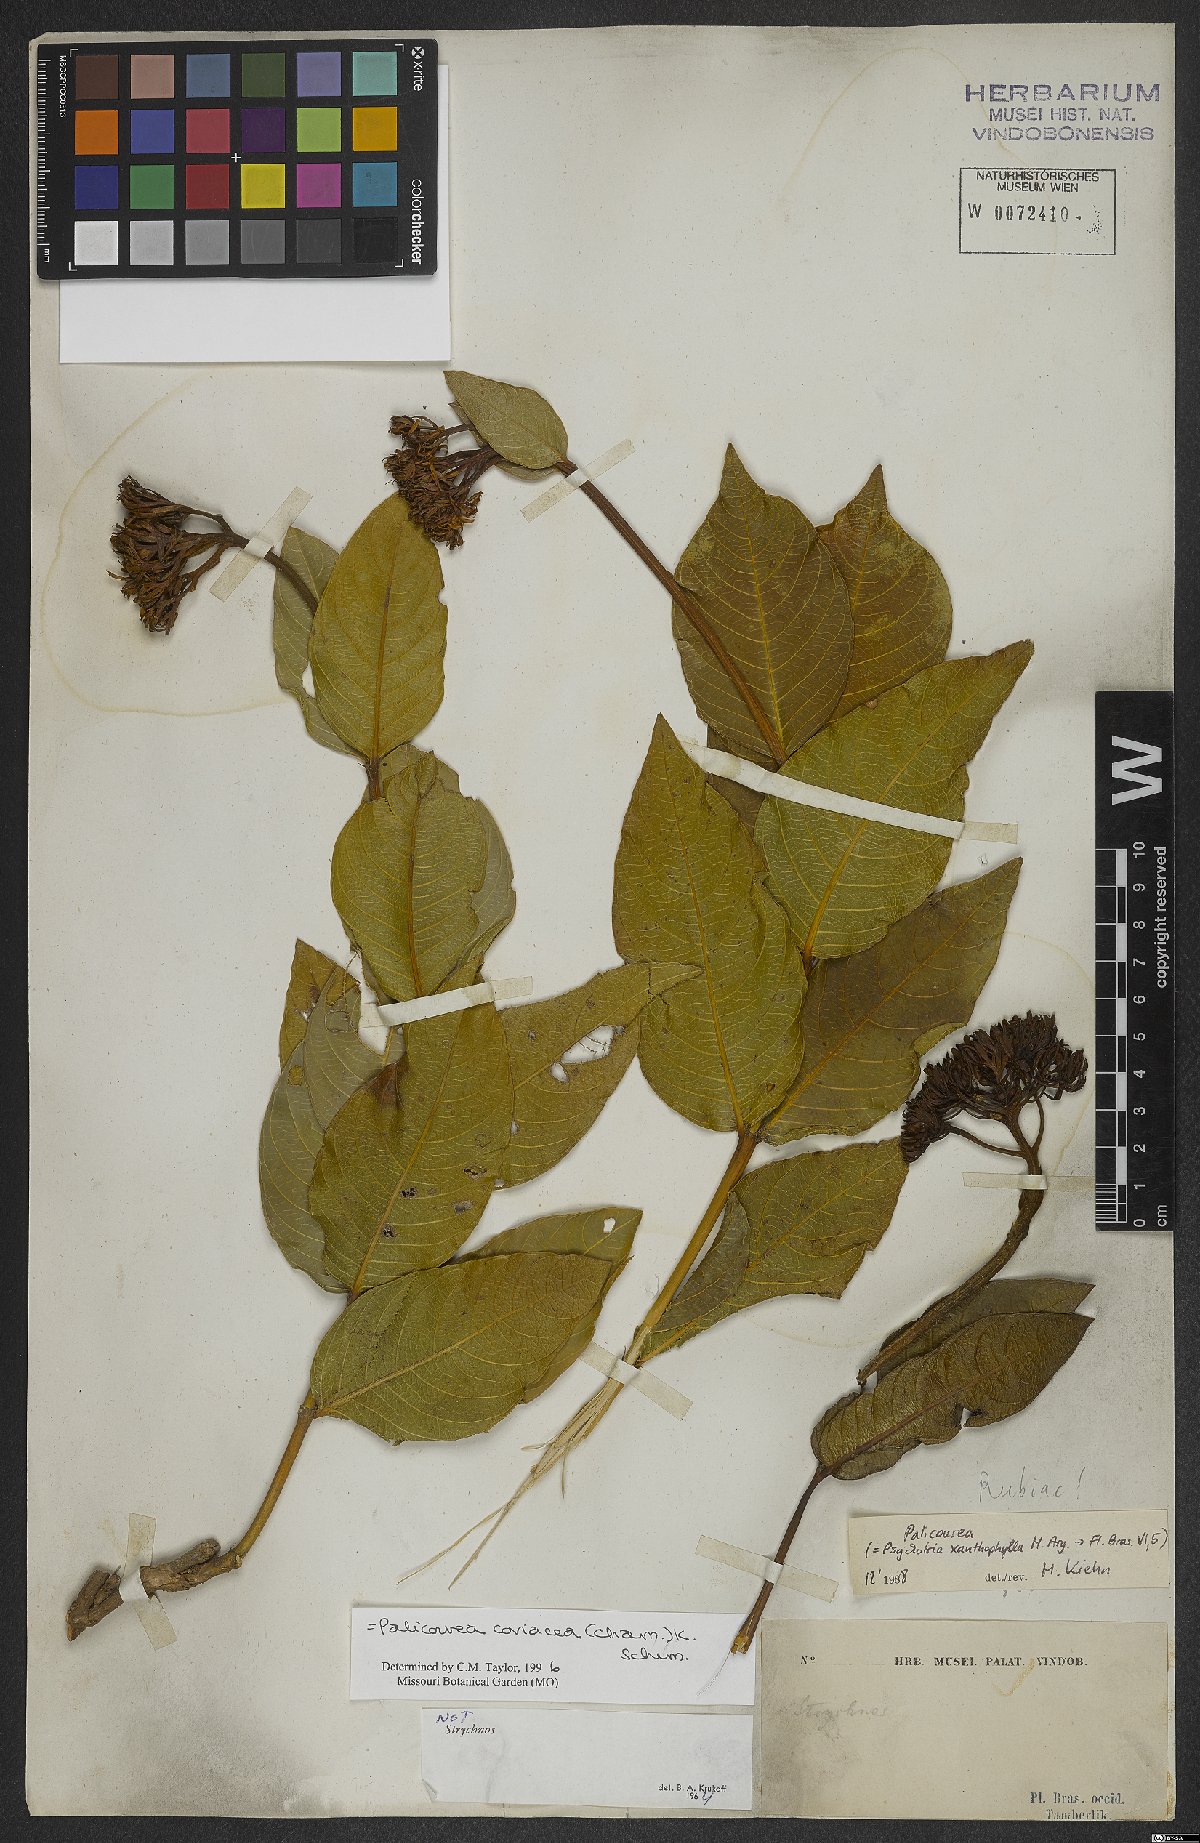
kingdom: Plantae
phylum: Tracheophyta
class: Magnoliopsida
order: Gentianales
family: Rubiaceae
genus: Palicourea
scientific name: Palicourea coriacea
